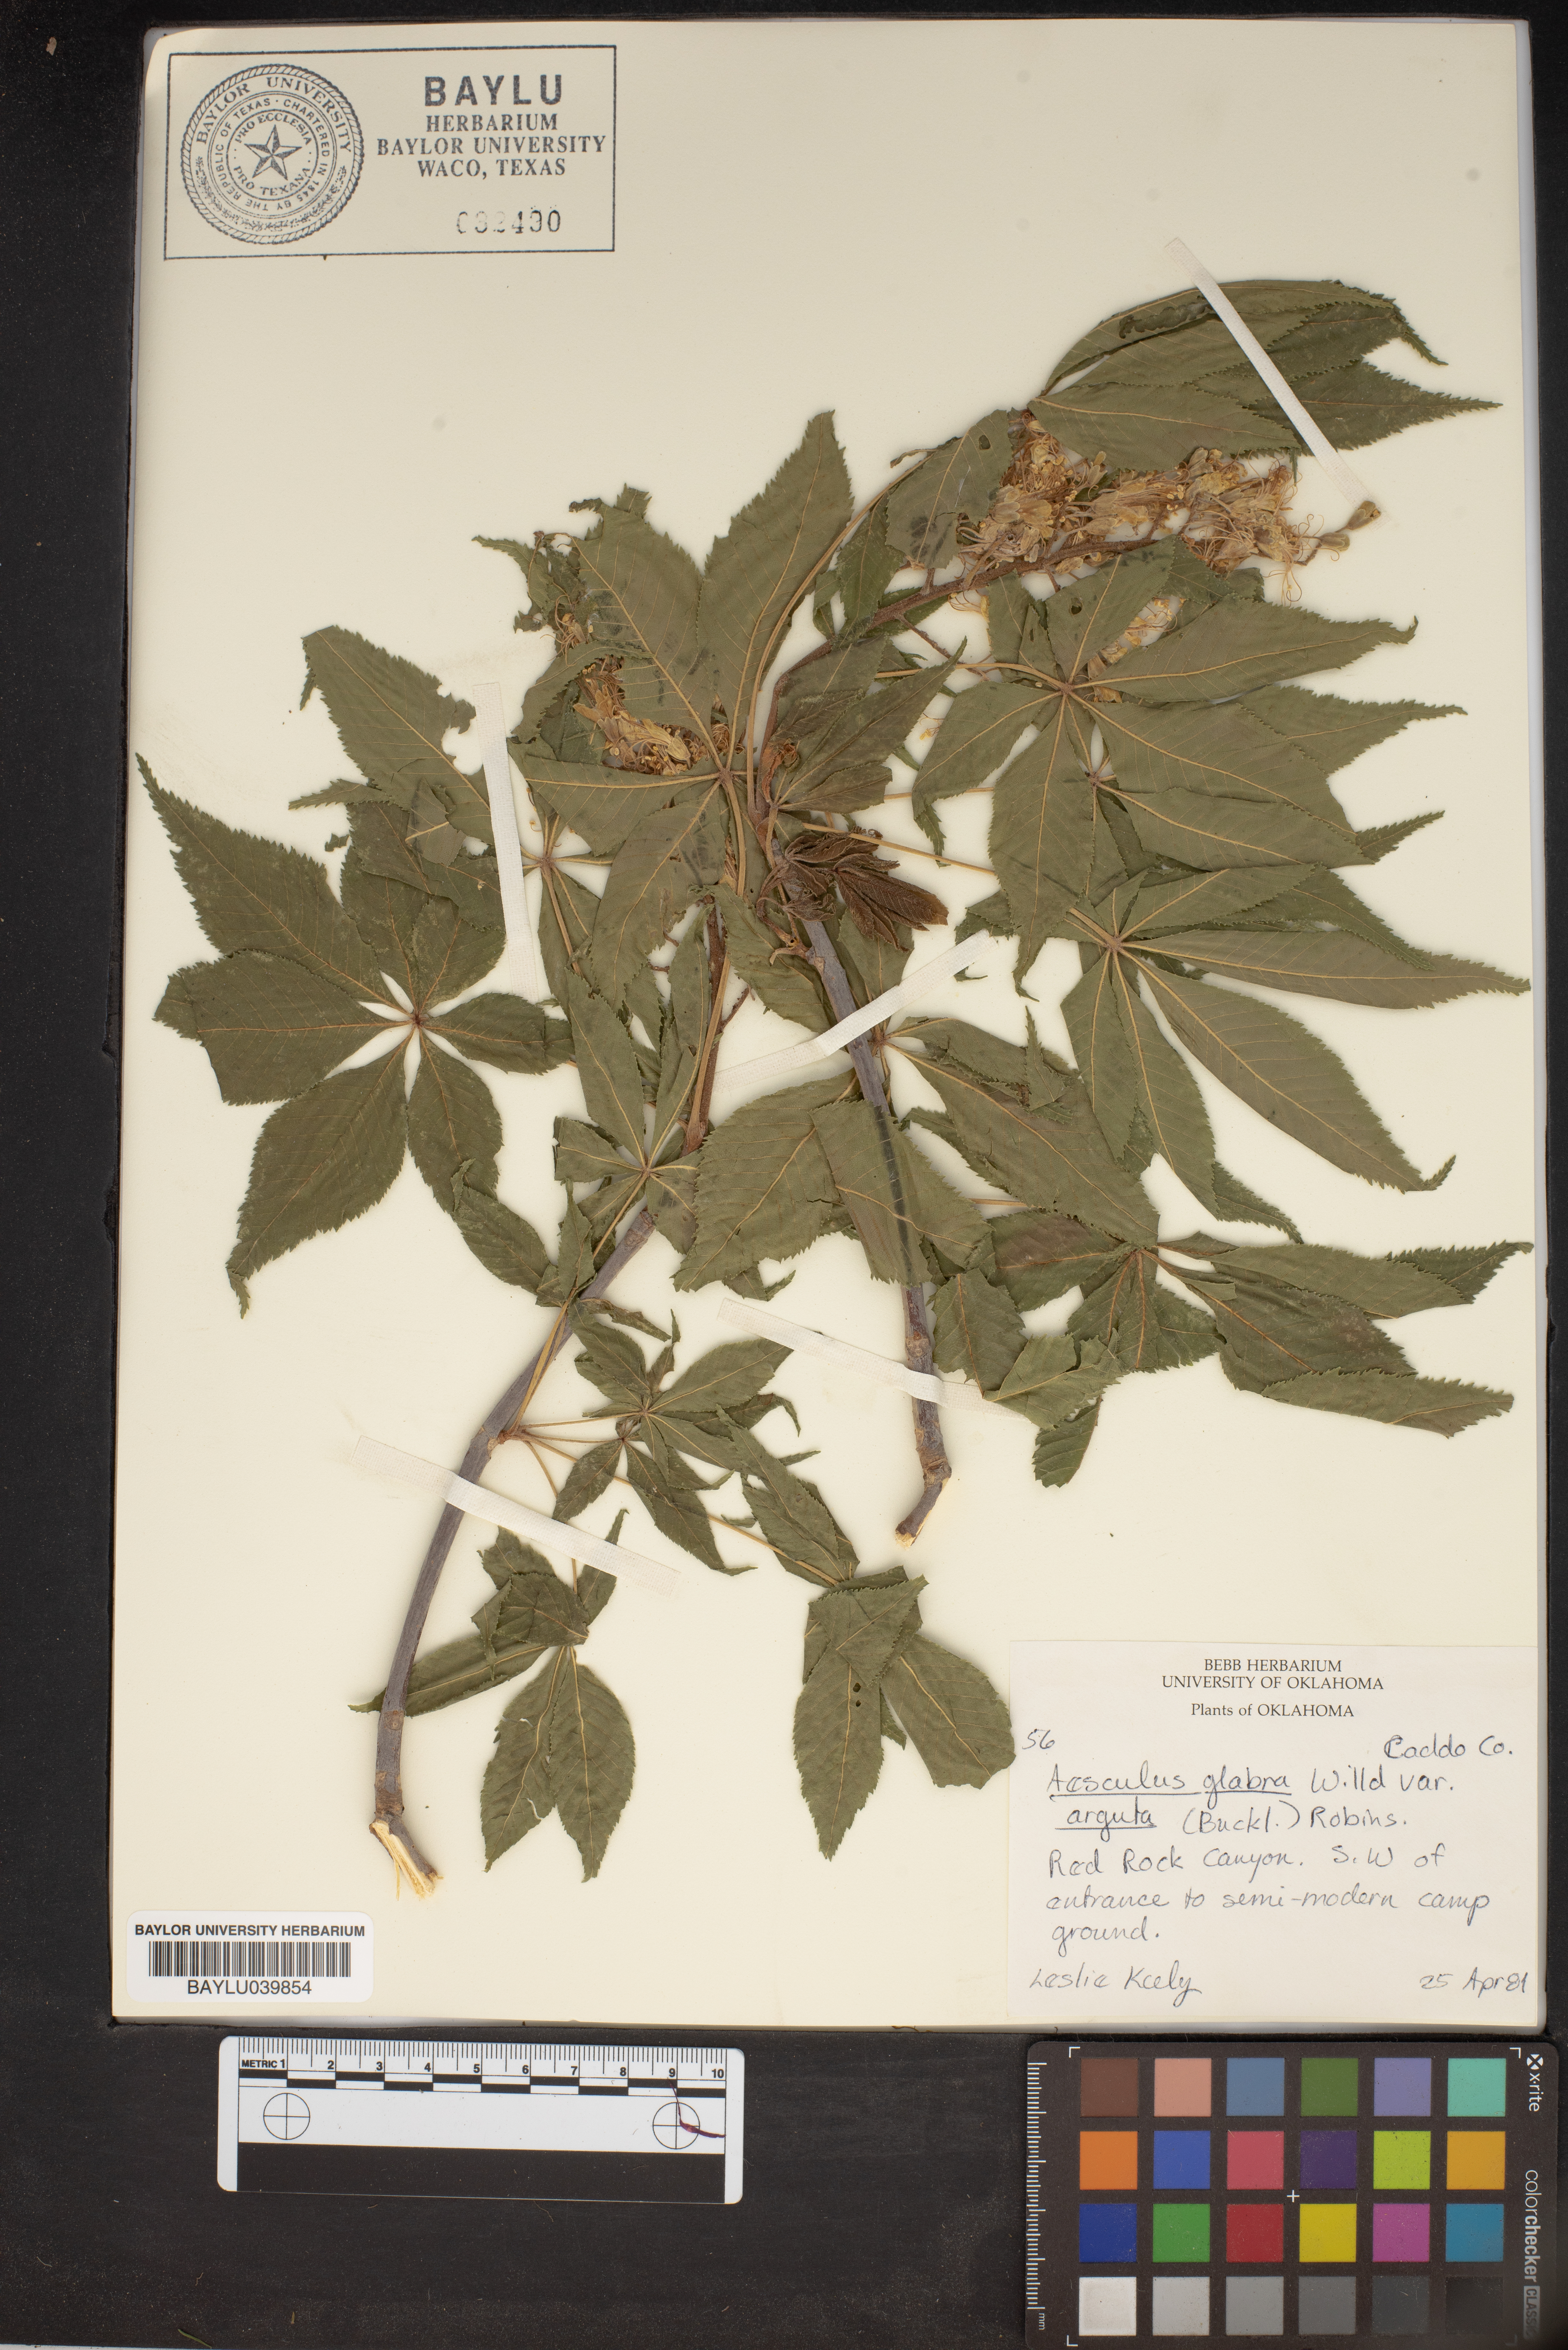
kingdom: Plantae
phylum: Tracheophyta
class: Magnoliopsida
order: Sapindales
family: Sapindaceae
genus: Aesculus
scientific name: Aesculus glabra
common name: Ohio buckeye
